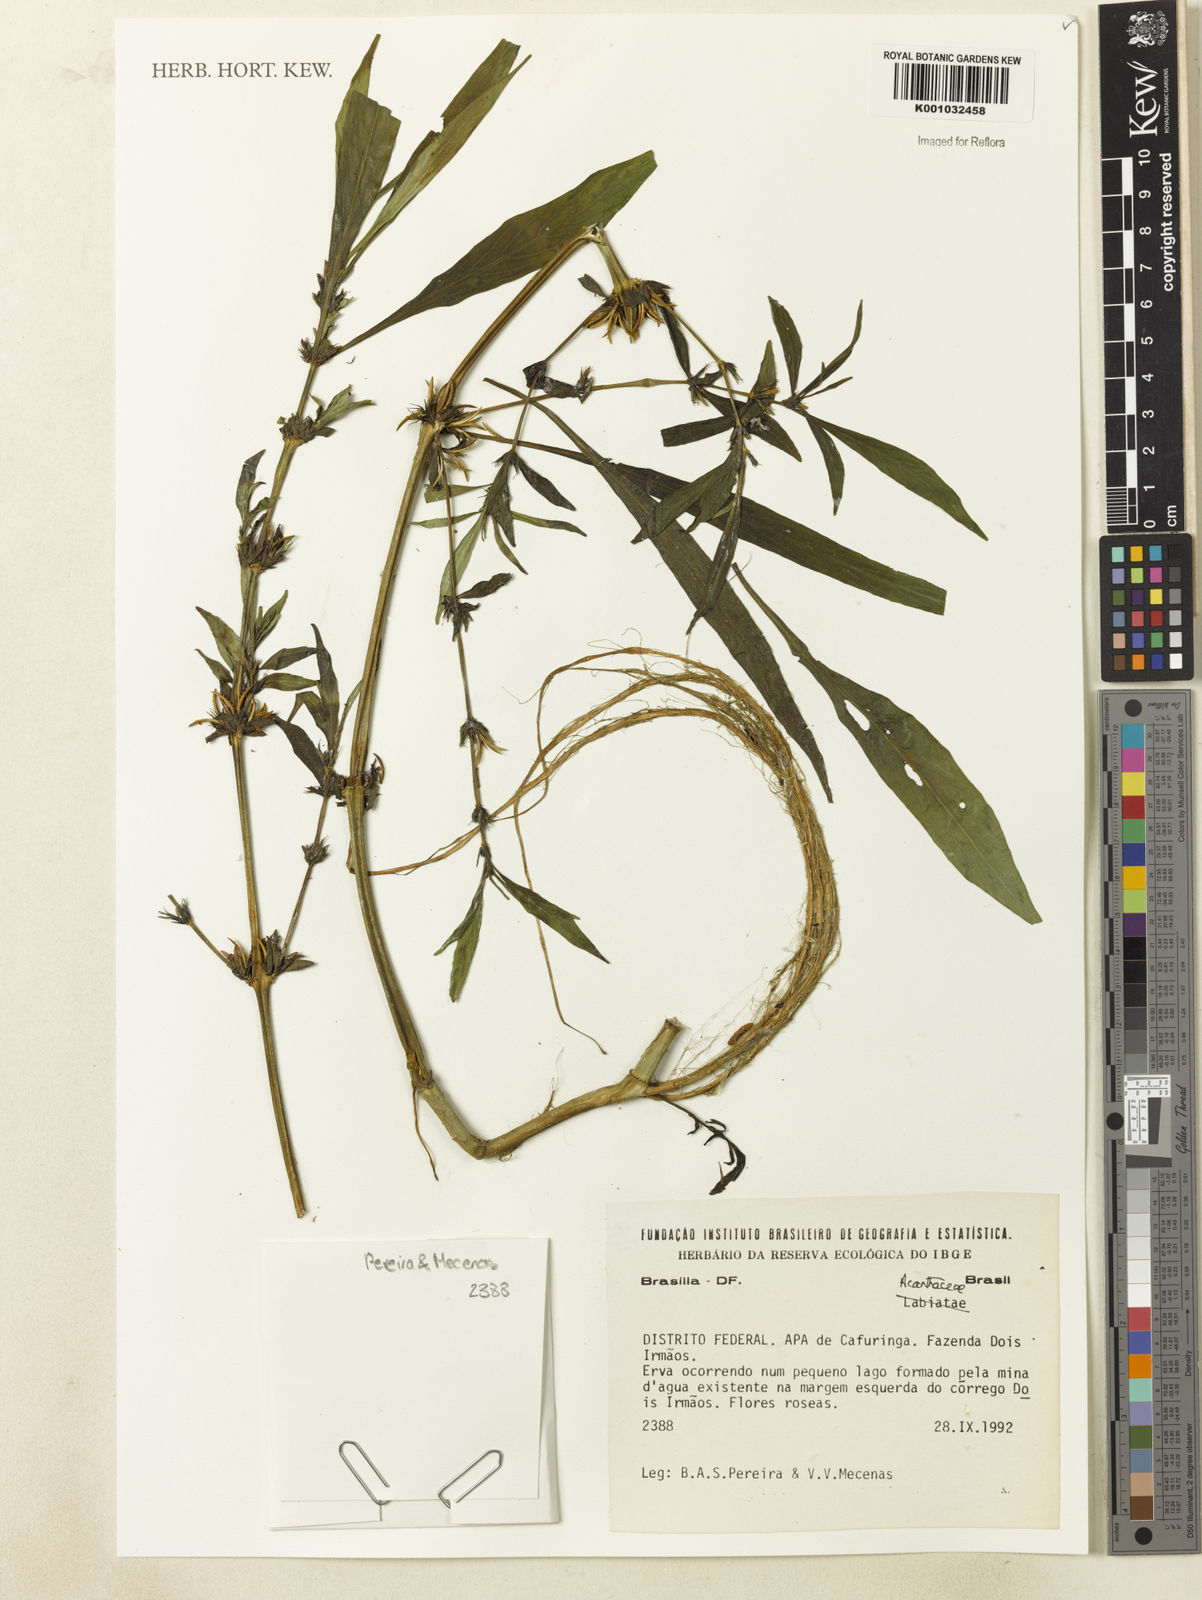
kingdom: Plantae
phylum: Tracheophyta
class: Magnoliopsida
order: Lamiales
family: Acanthaceae
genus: Hygrophila
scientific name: Hygrophila costata
